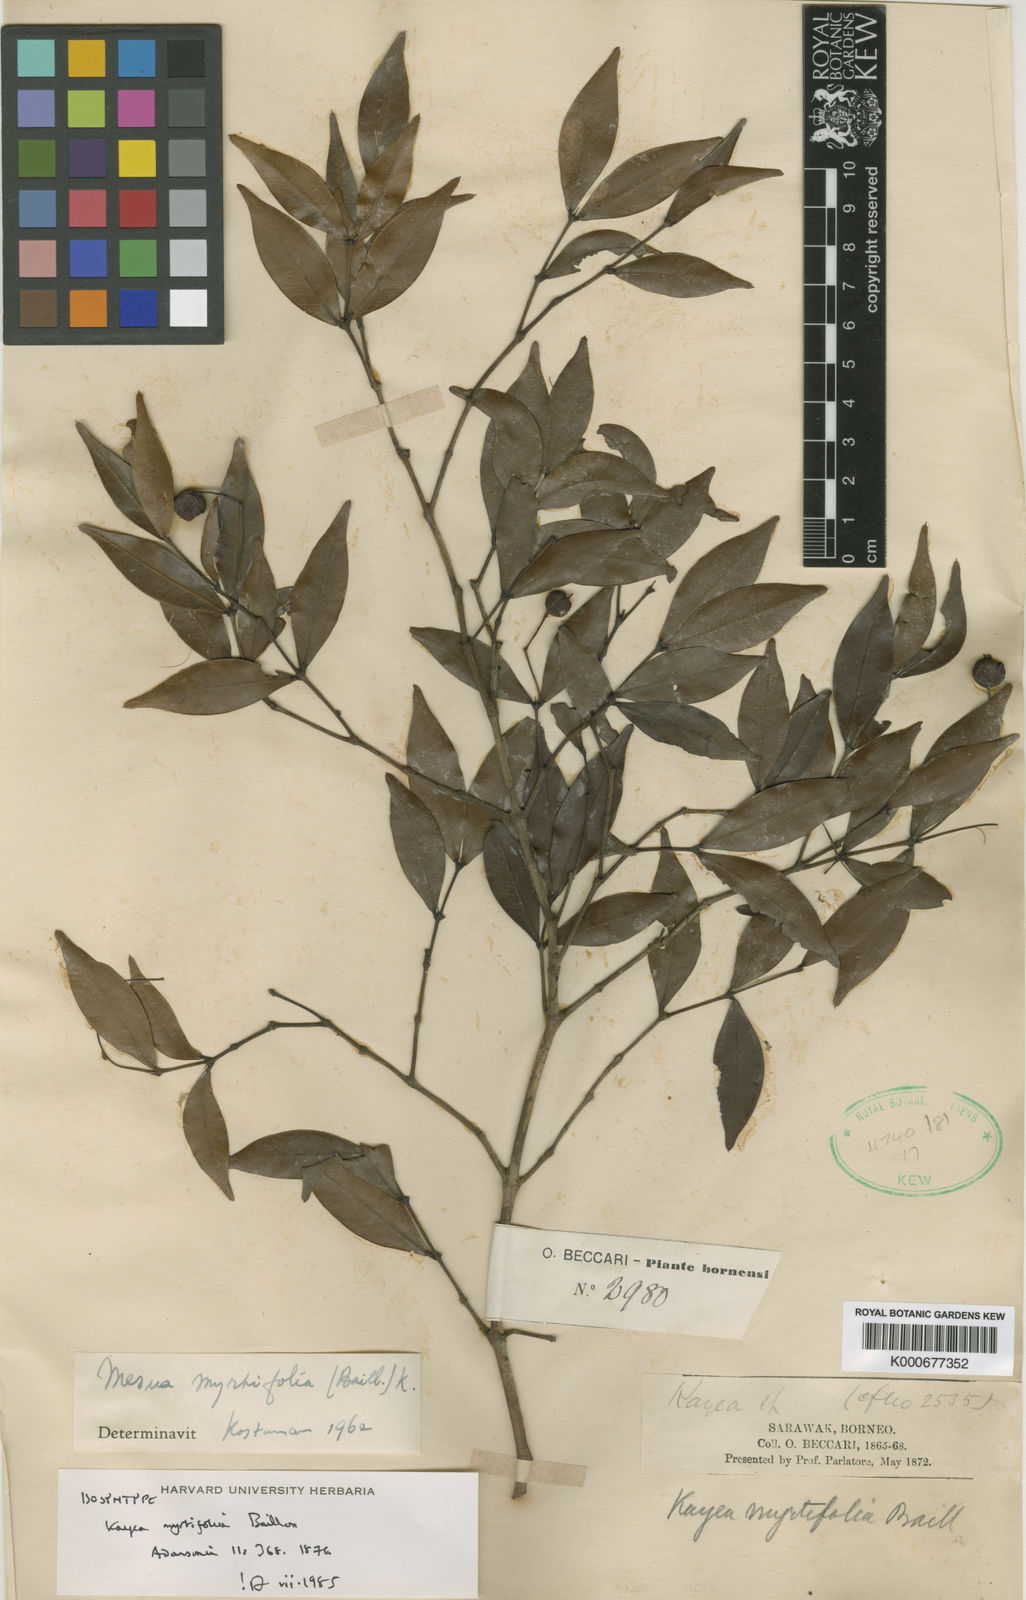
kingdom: Plantae
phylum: Tracheophyta
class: Magnoliopsida
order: Malpighiales
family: Calophyllaceae
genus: Kayea
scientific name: Kayea myrtifolia
